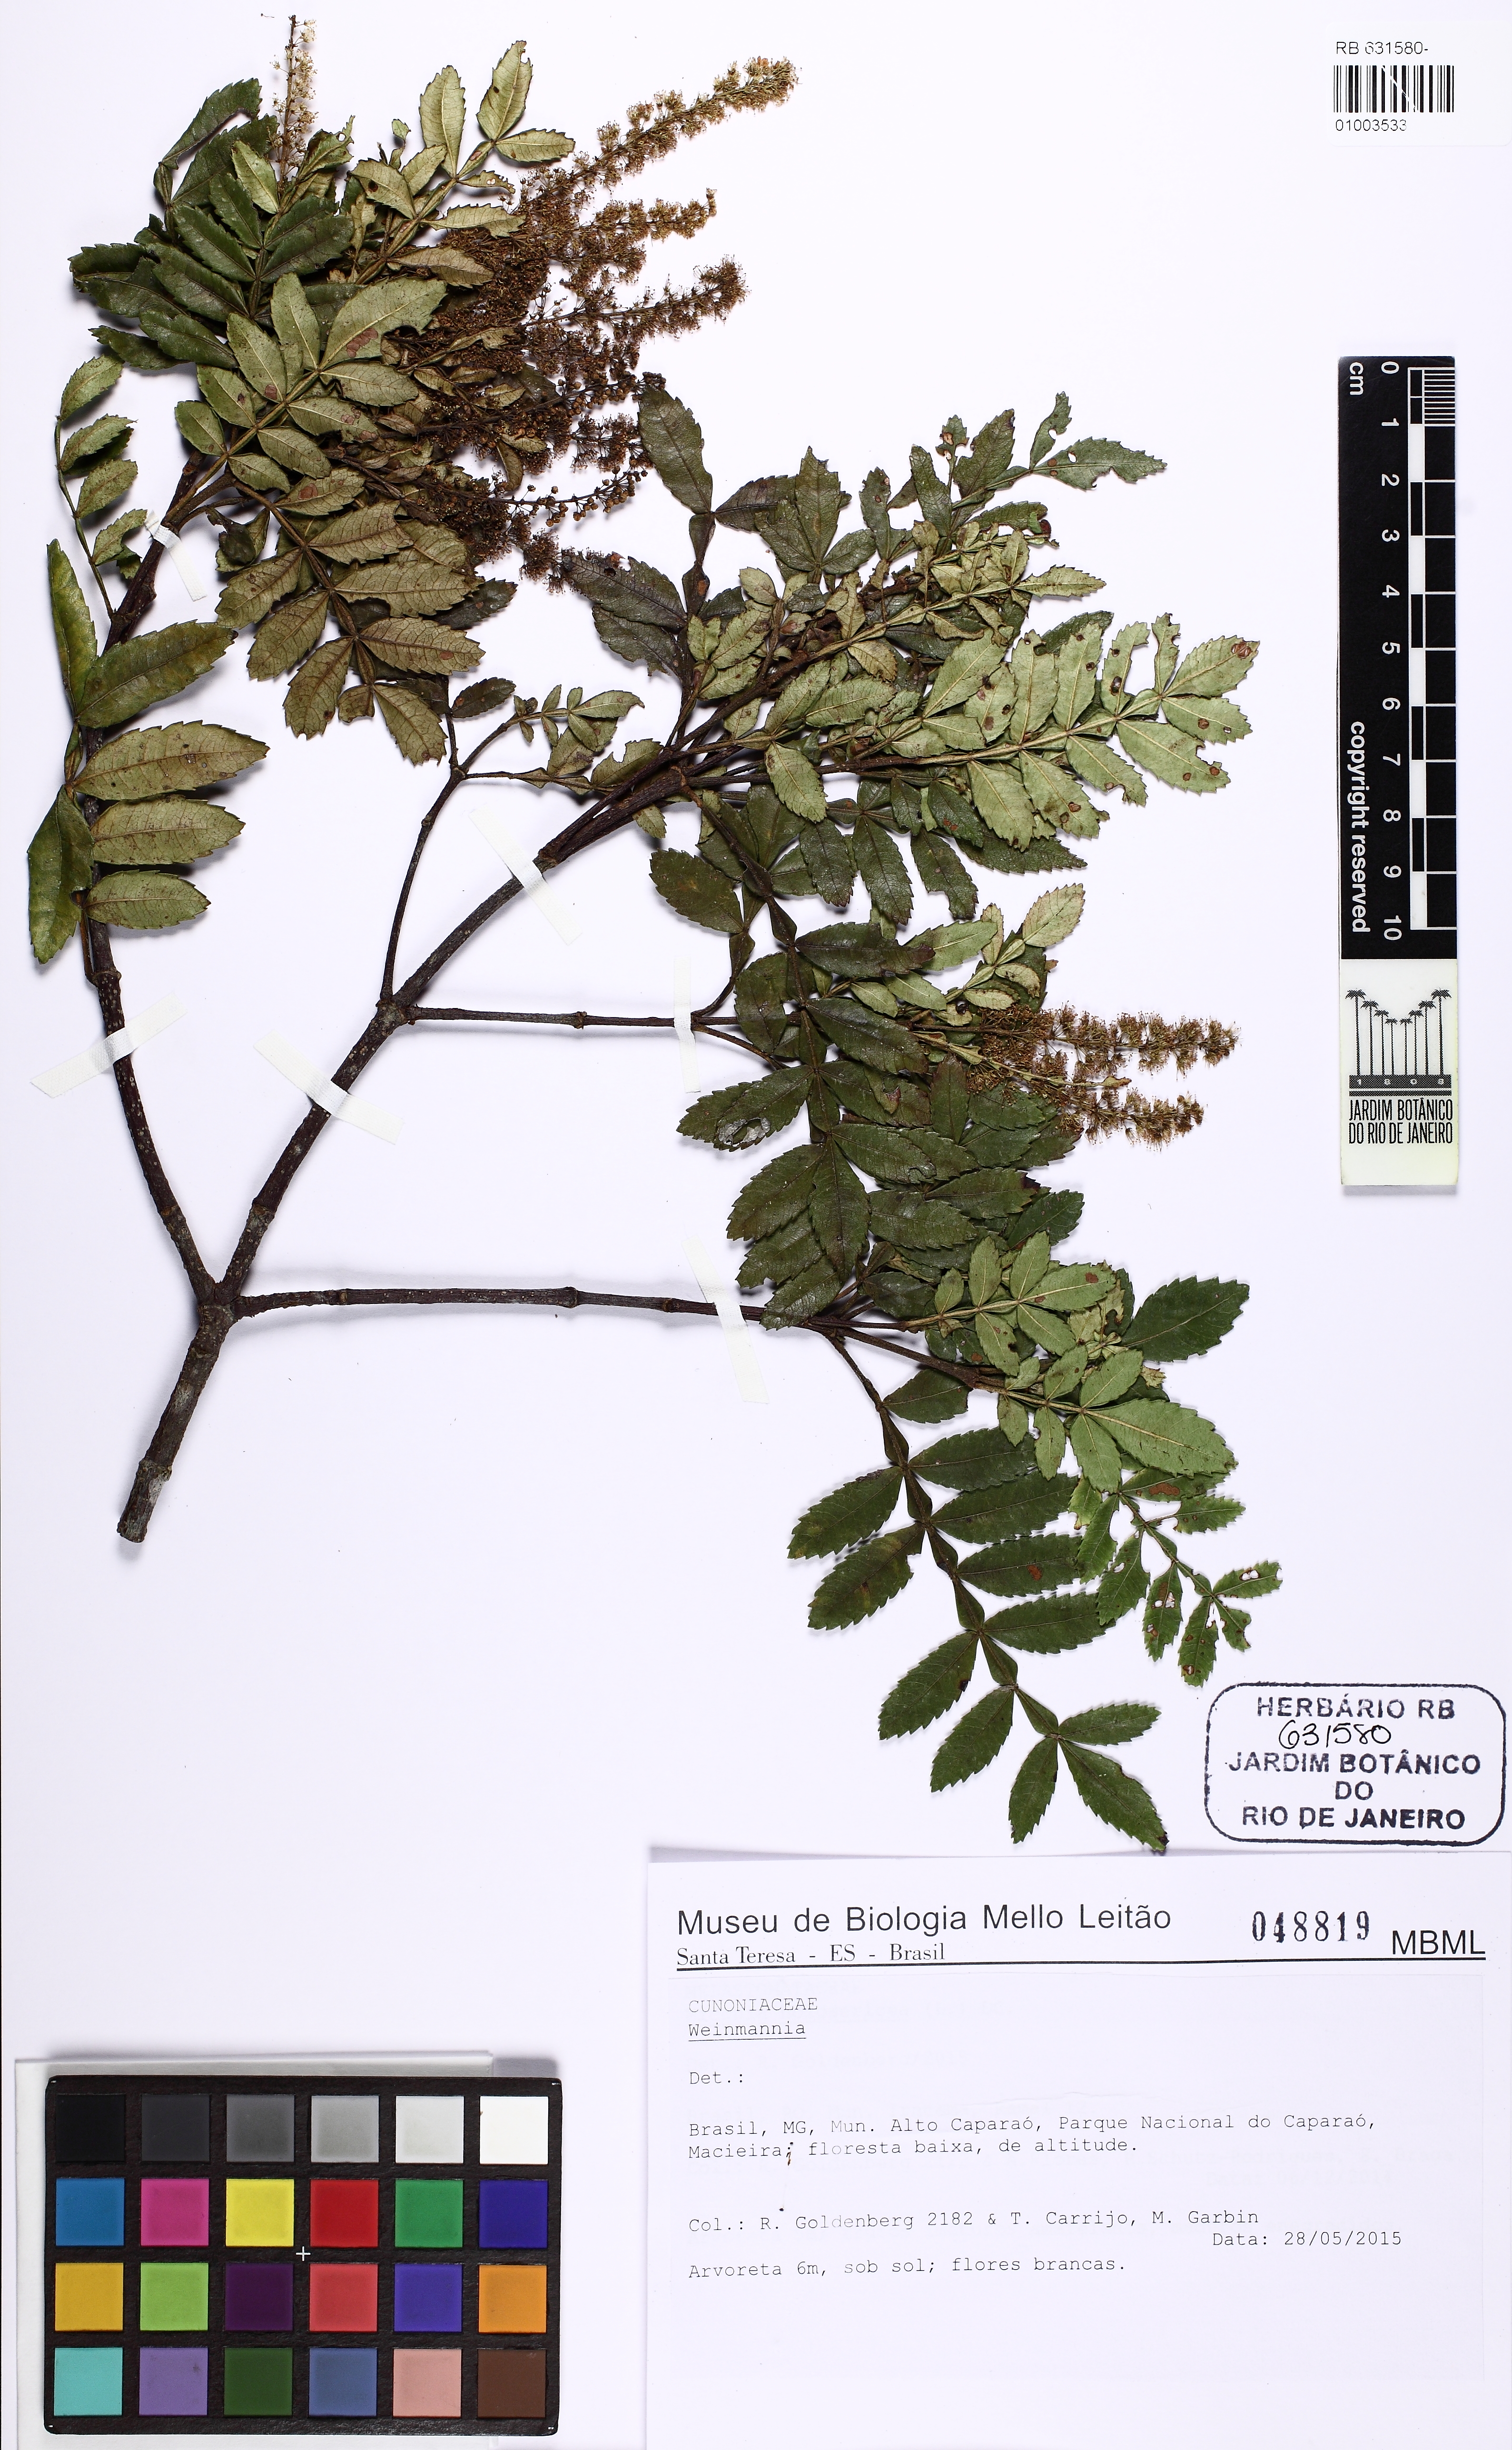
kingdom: Plantae
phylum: Tracheophyta
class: Magnoliopsida
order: Oxalidales
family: Cunoniaceae
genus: Weinmannia
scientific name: Weinmannia
